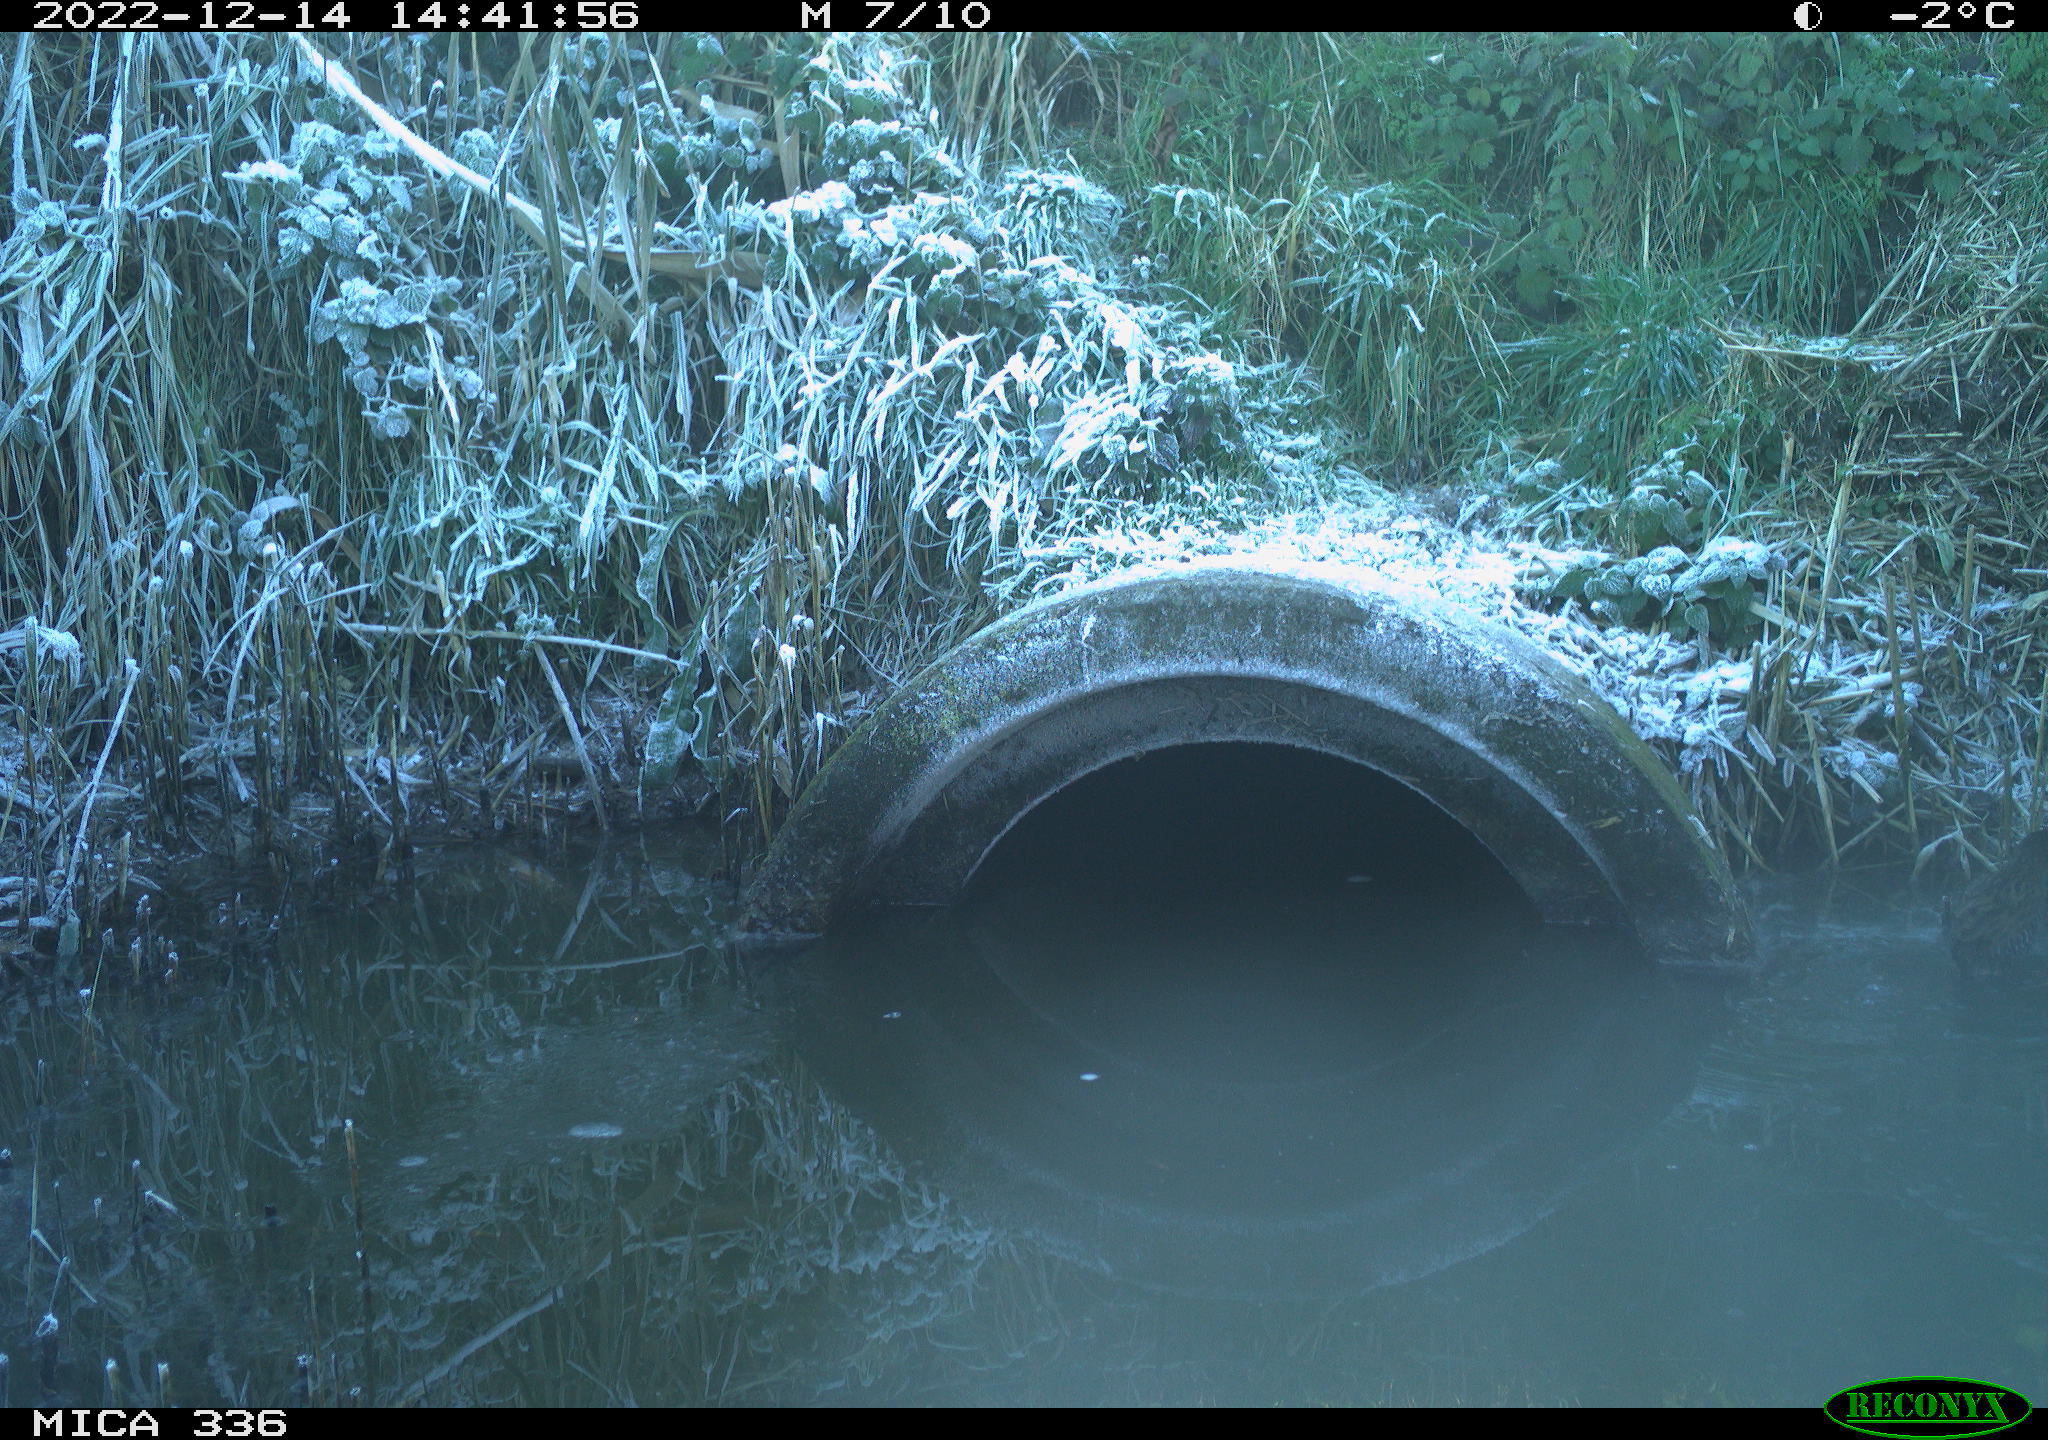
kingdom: Animalia
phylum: Chordata
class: Aves
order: Gruiformes
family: Rallidae
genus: Rallus
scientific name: Rallus aquaticus
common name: Water rail
